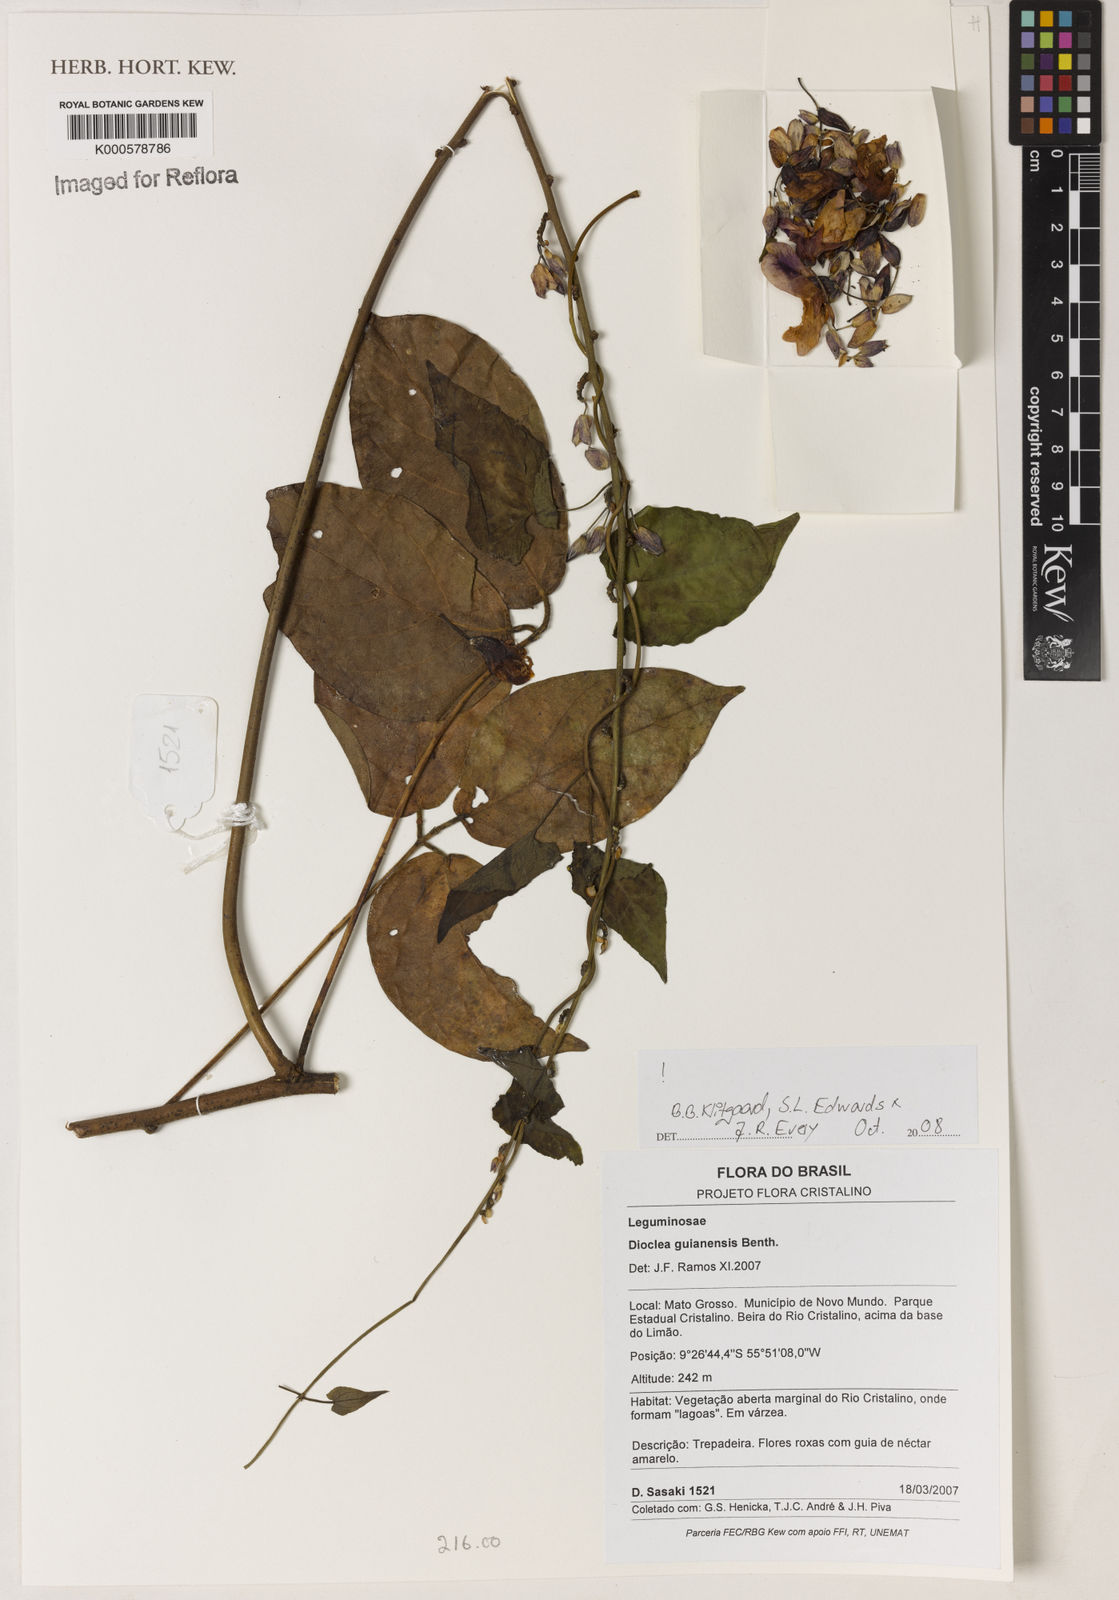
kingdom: Plantae
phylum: Tracheophyta
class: Magnoliopsida
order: Fabales
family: Fabaceae
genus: Dioclea
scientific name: Dioclea guianensis
